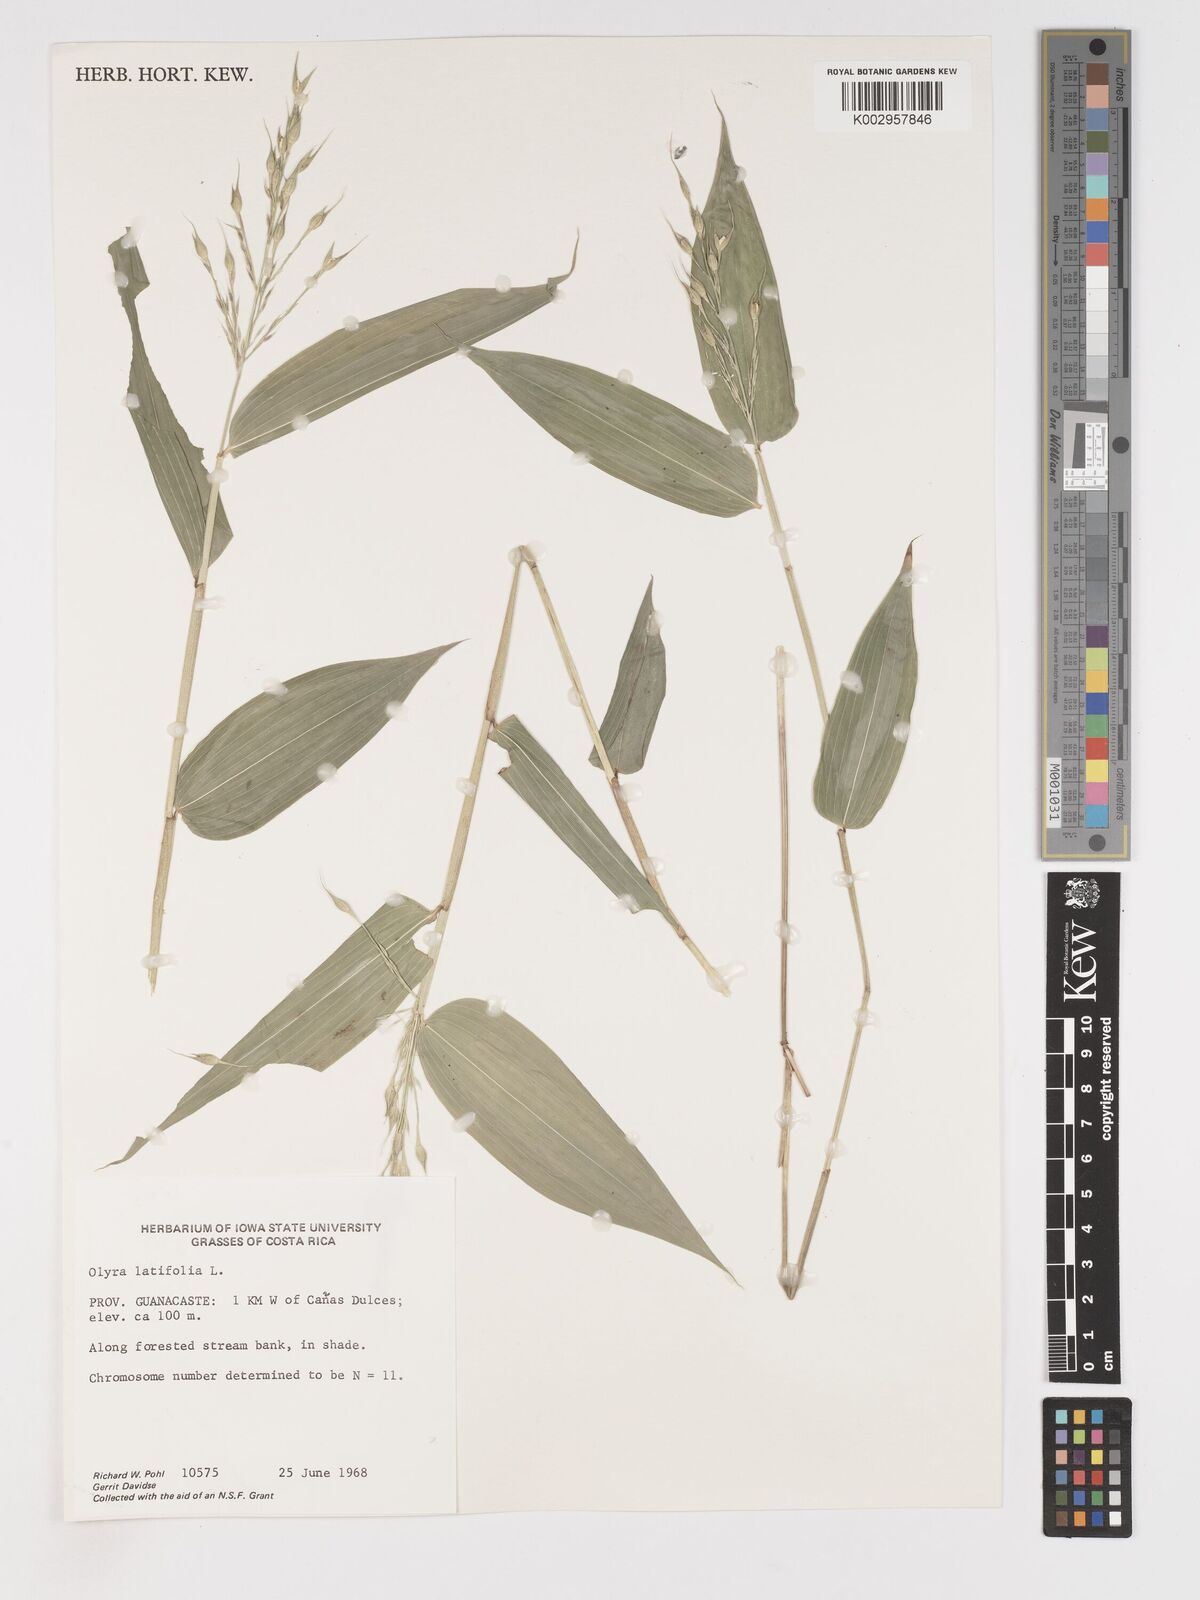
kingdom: Plantae
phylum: Tracheophyta
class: Liliopsida
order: Poales
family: Poaceae
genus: Olyra
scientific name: Olyra latifolia
